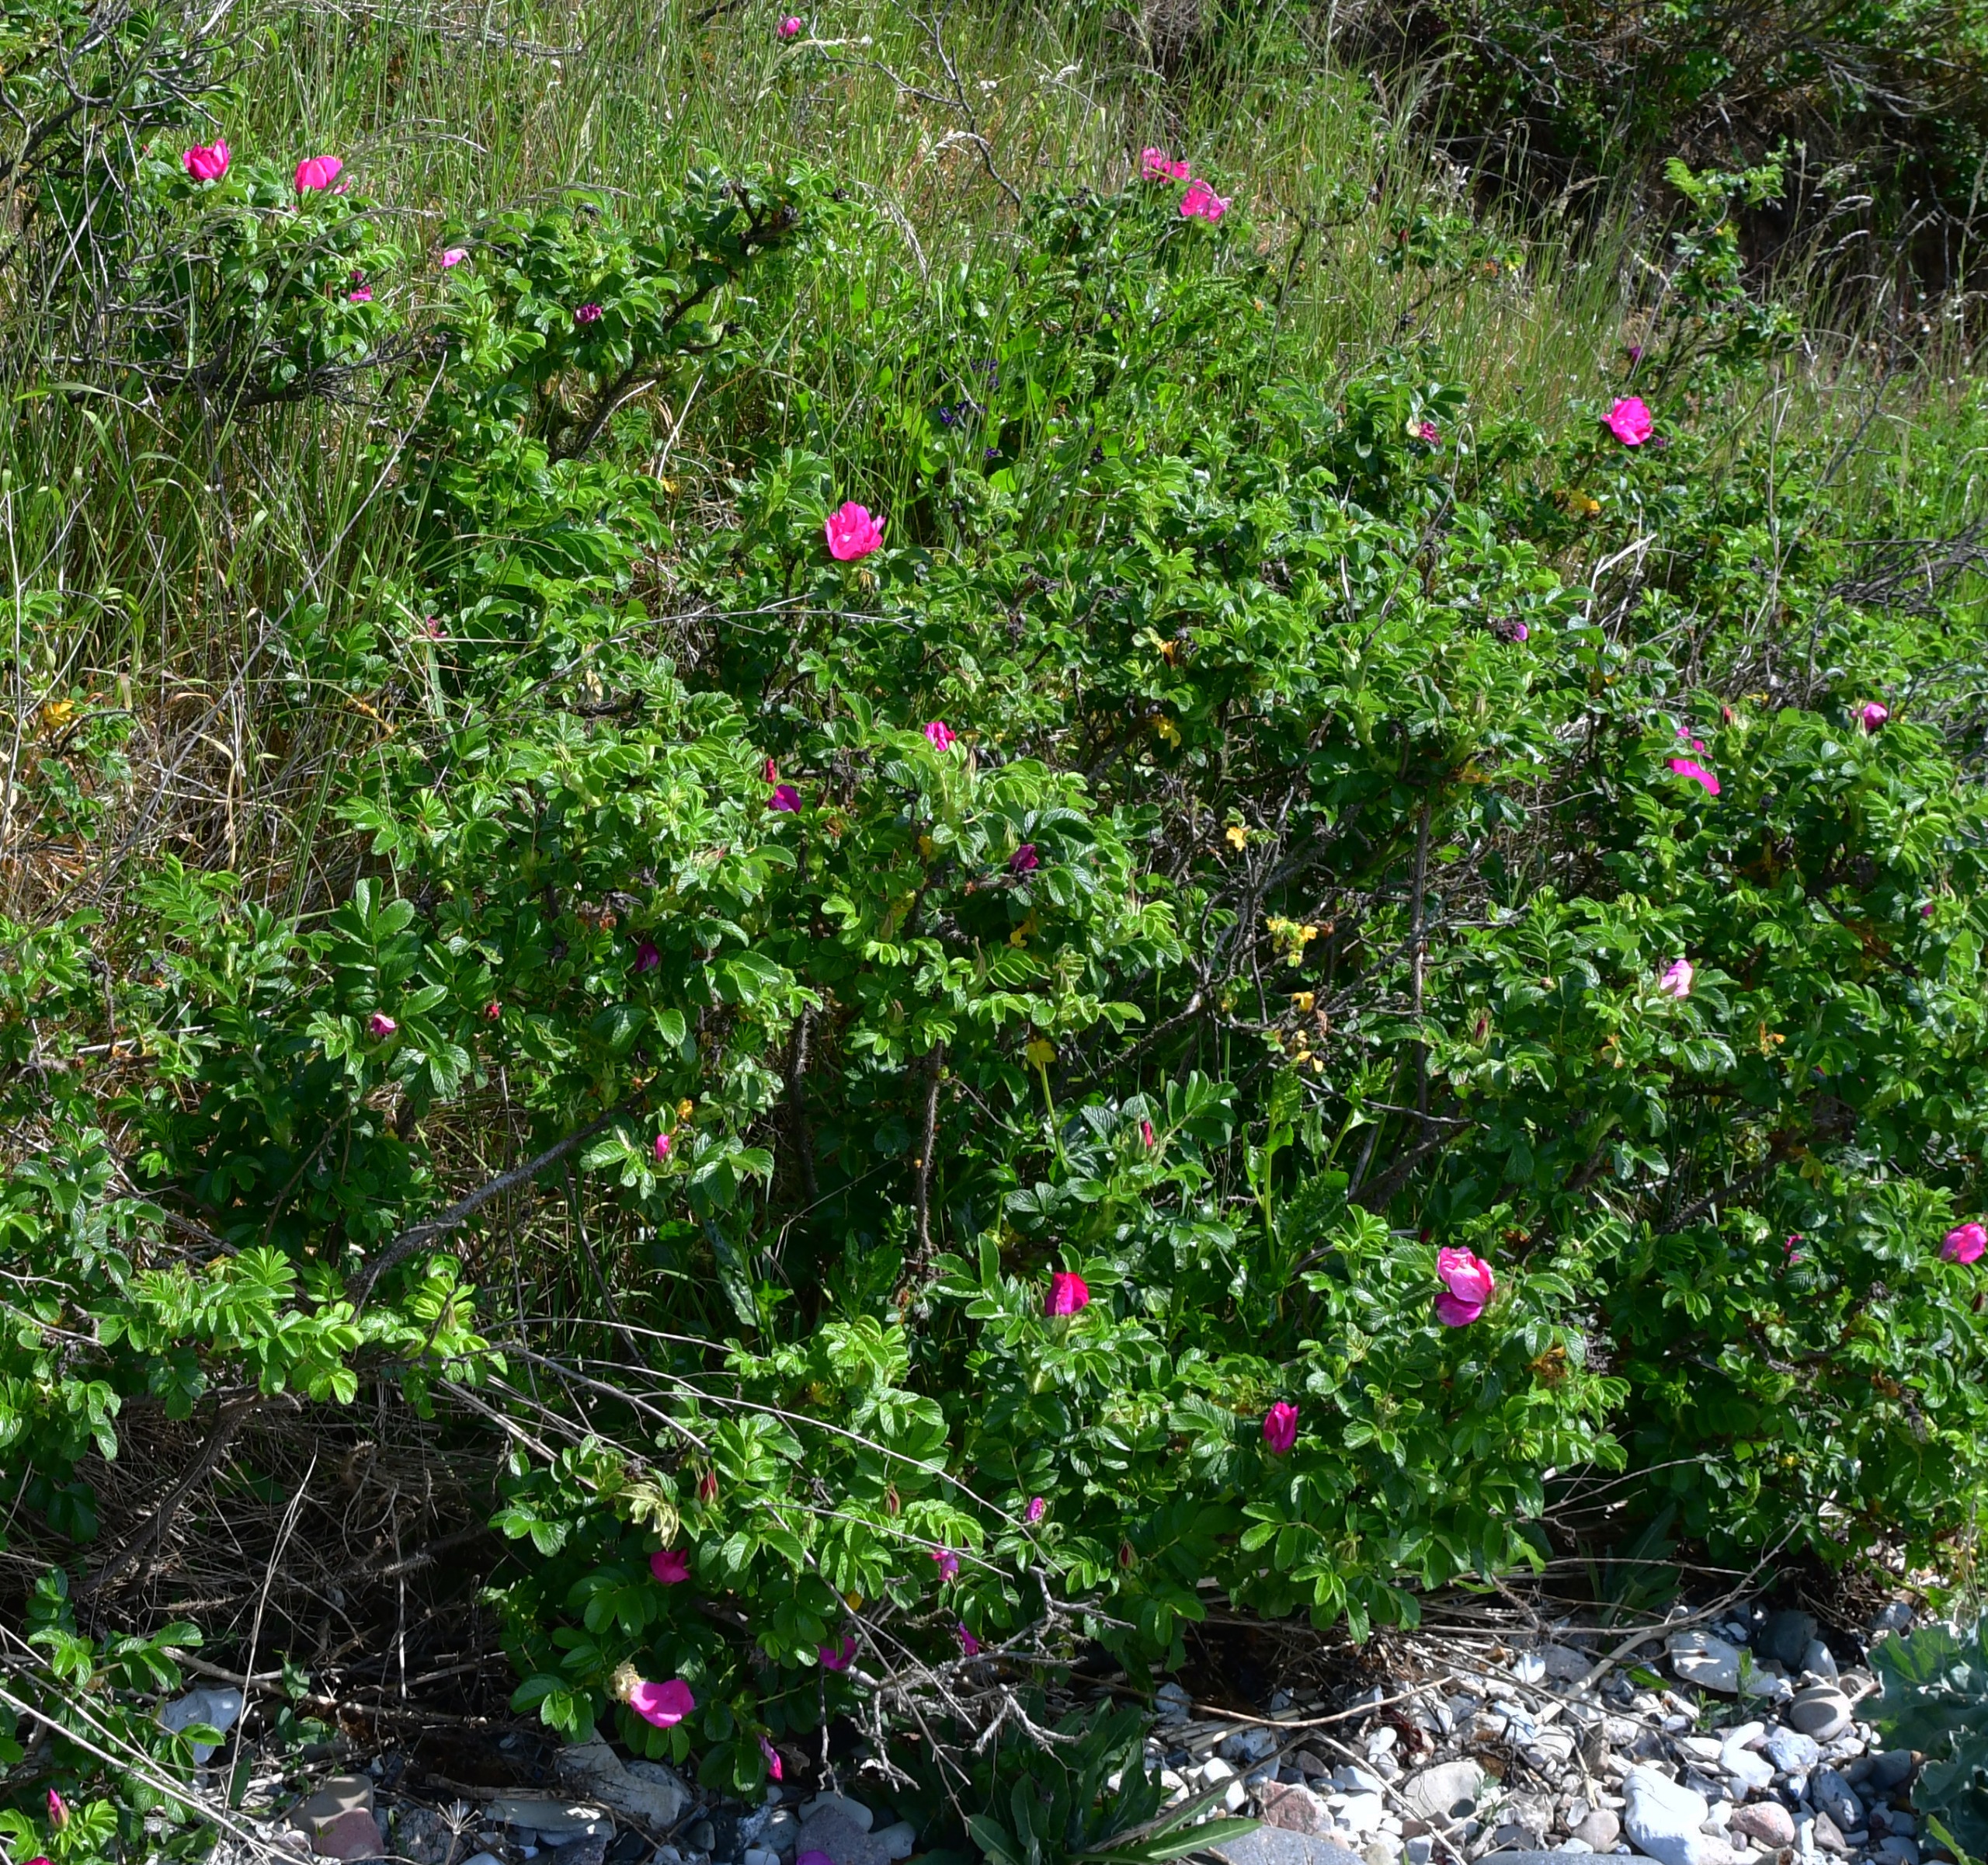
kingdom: Plantae
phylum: Tracheophyta
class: Magnoliopsida
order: Rosales
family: Rosaceae
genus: Rosa
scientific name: Rosa rugosa
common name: Rynket rose
